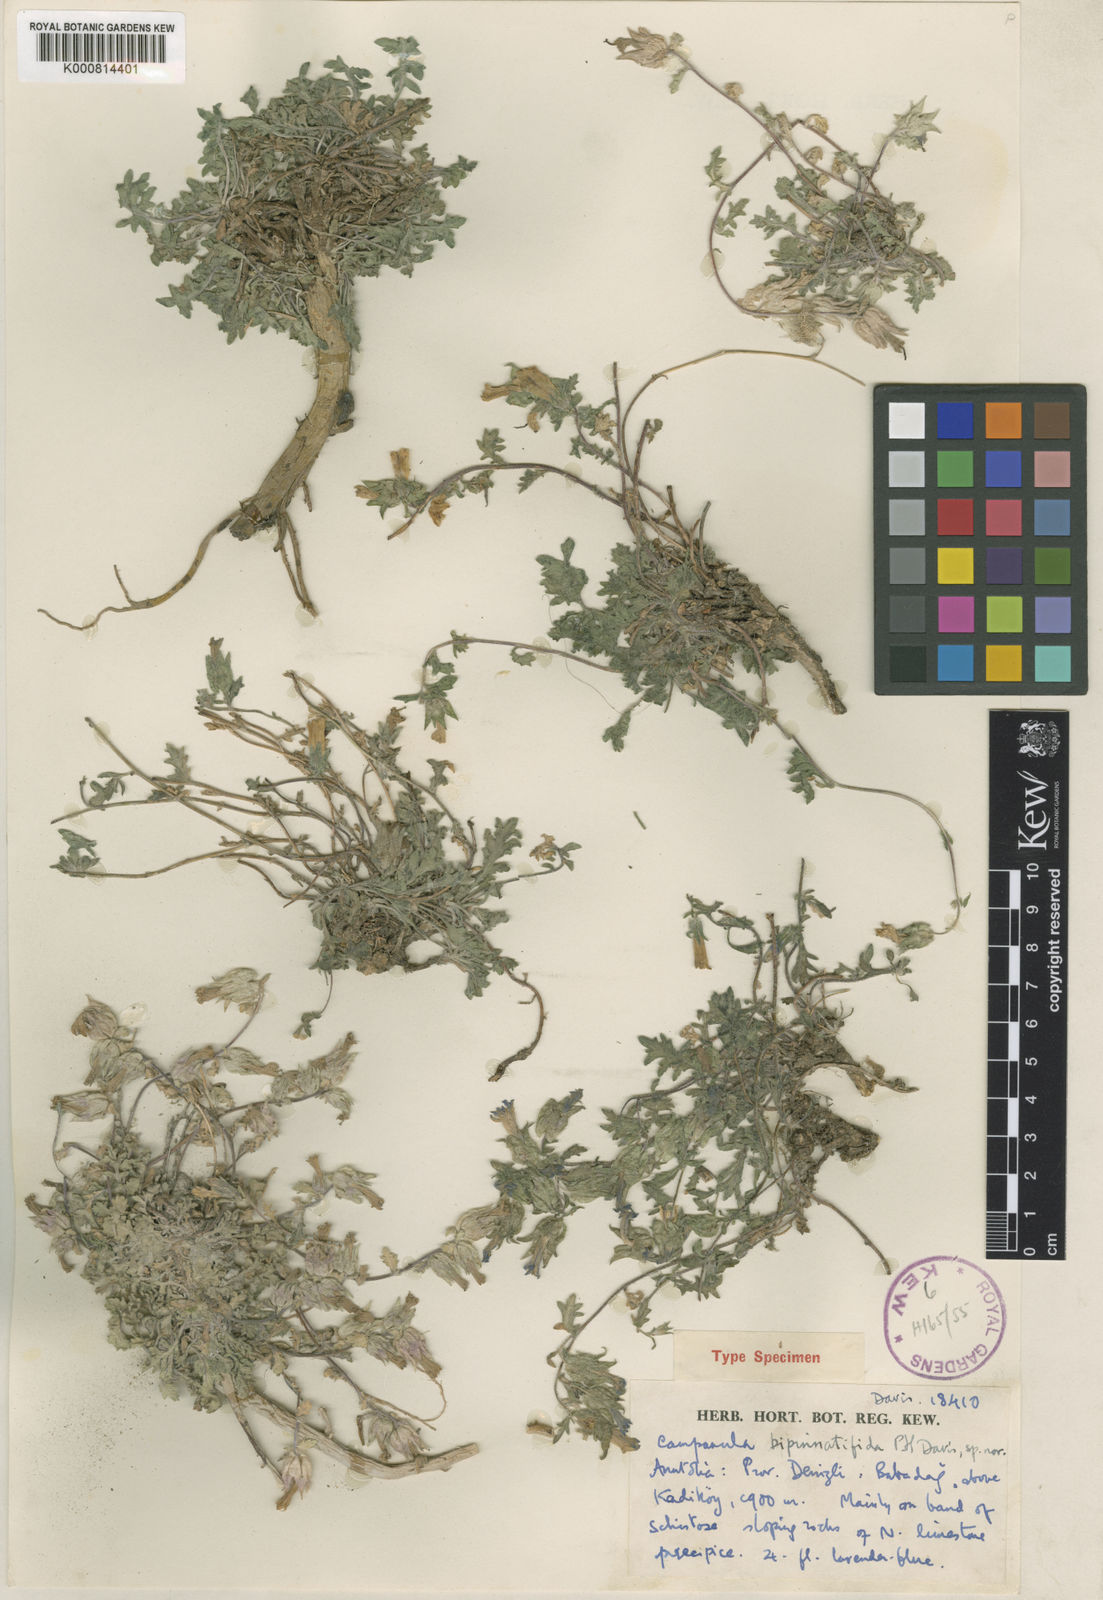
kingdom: Plantae
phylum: Tracheophyta
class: Magnoliopsida
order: Asterales
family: Campanulaceae
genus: Campanula
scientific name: Campanula bipinnatifida
